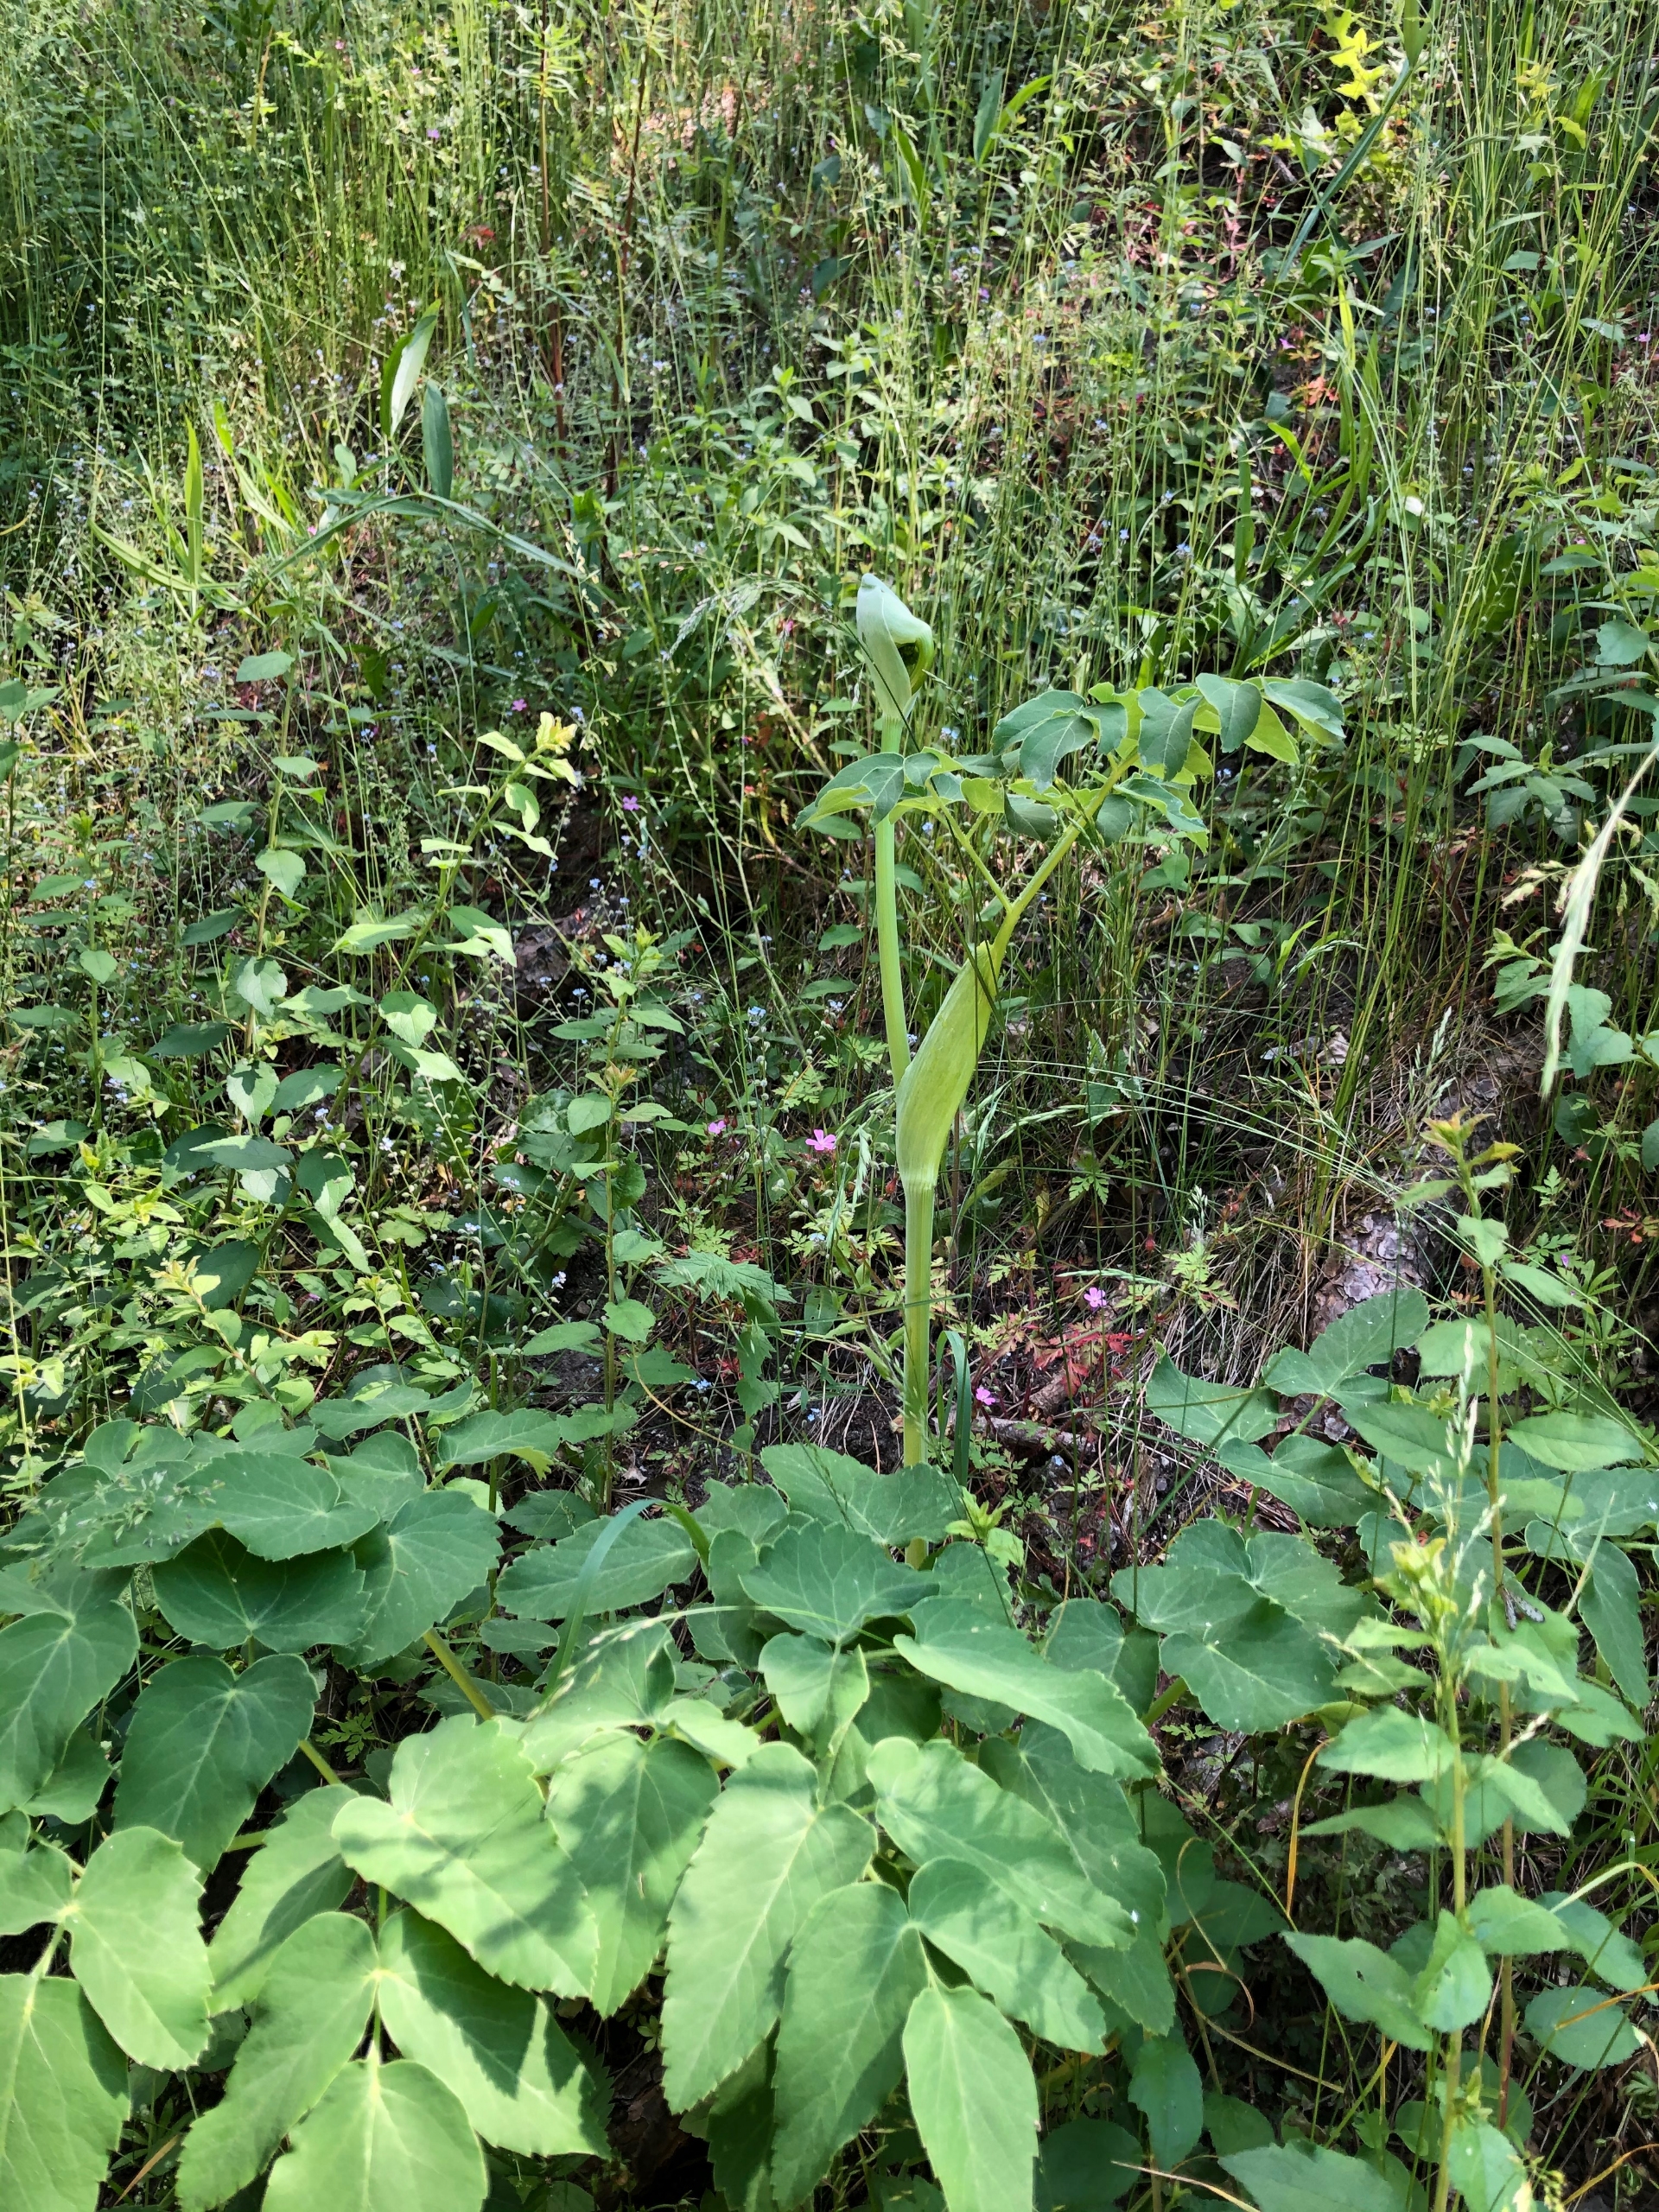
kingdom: Plantae
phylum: Tracheophyta
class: Magnoliopsida
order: Apiales
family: Apiaceae
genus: Laserpitium
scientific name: Laserpitium latifolium
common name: Foldfrø
